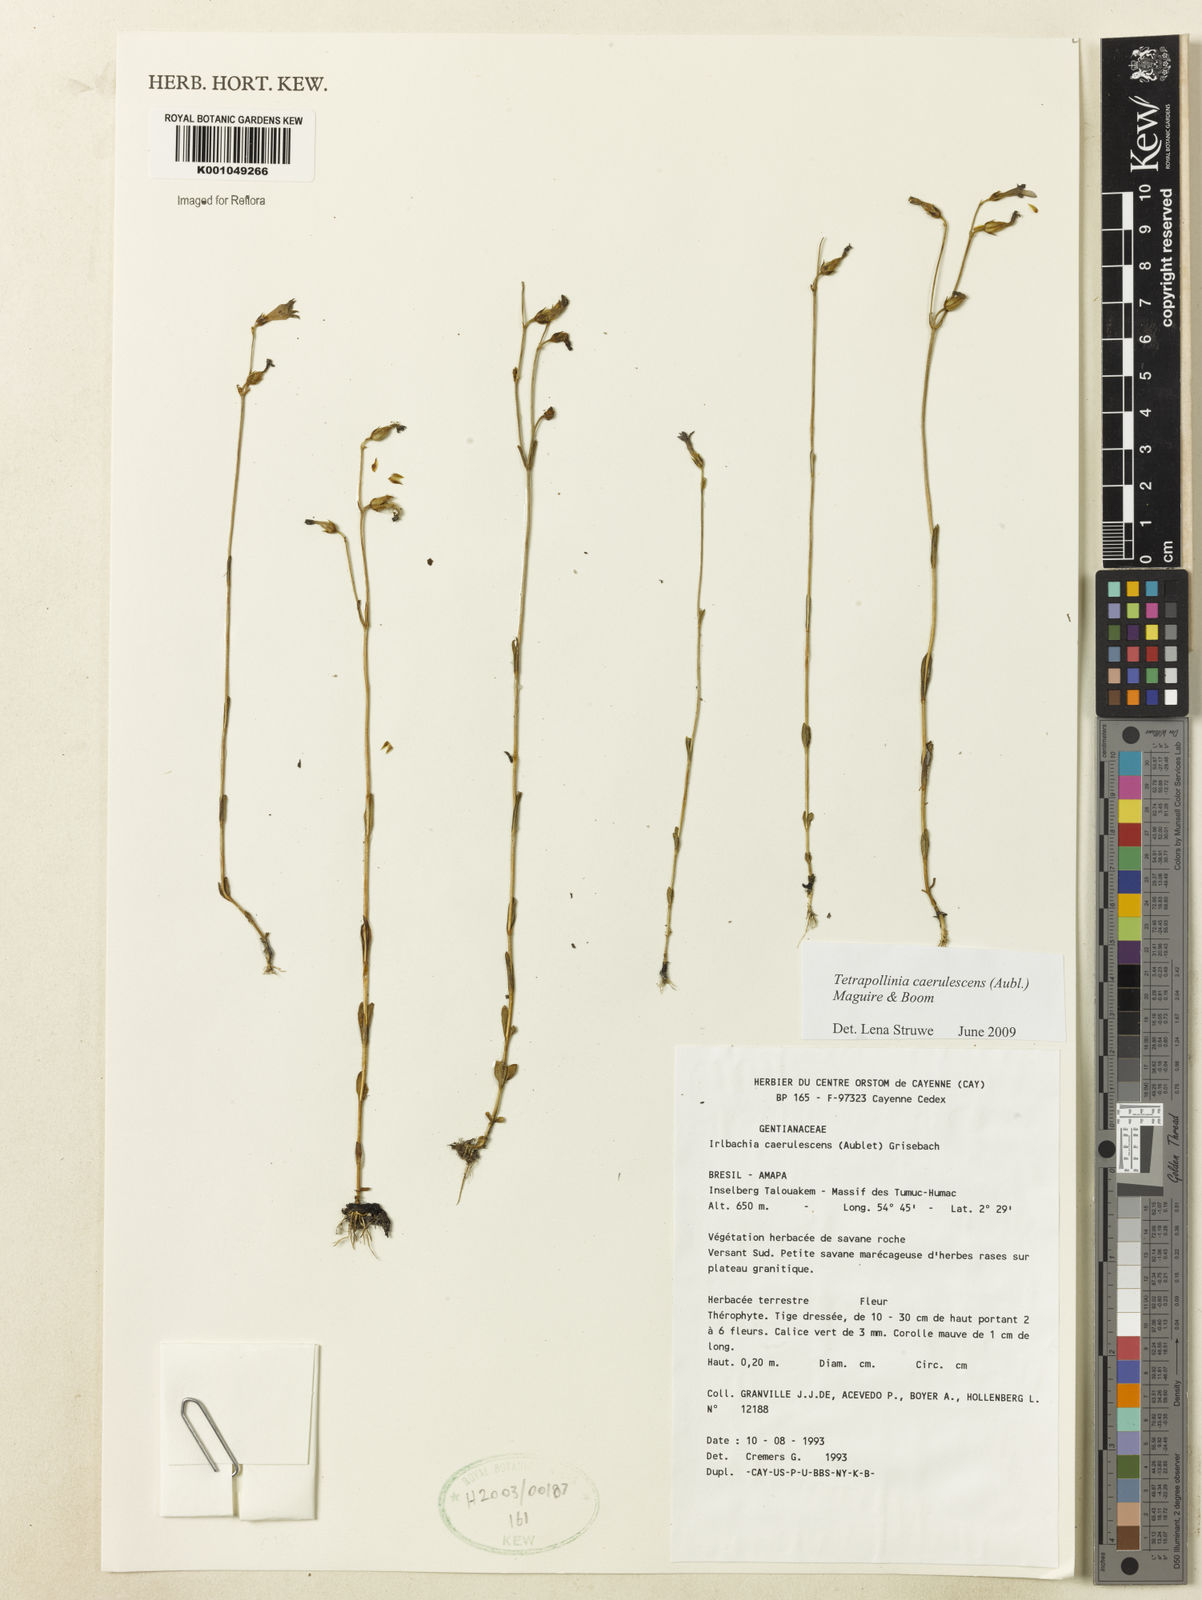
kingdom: Plantae
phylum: Tracheophyta
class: Magnoliopsida
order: Gentianales
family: Gentianaceae
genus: Tetrapollinia
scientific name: Tetrapollinia caerulescens
